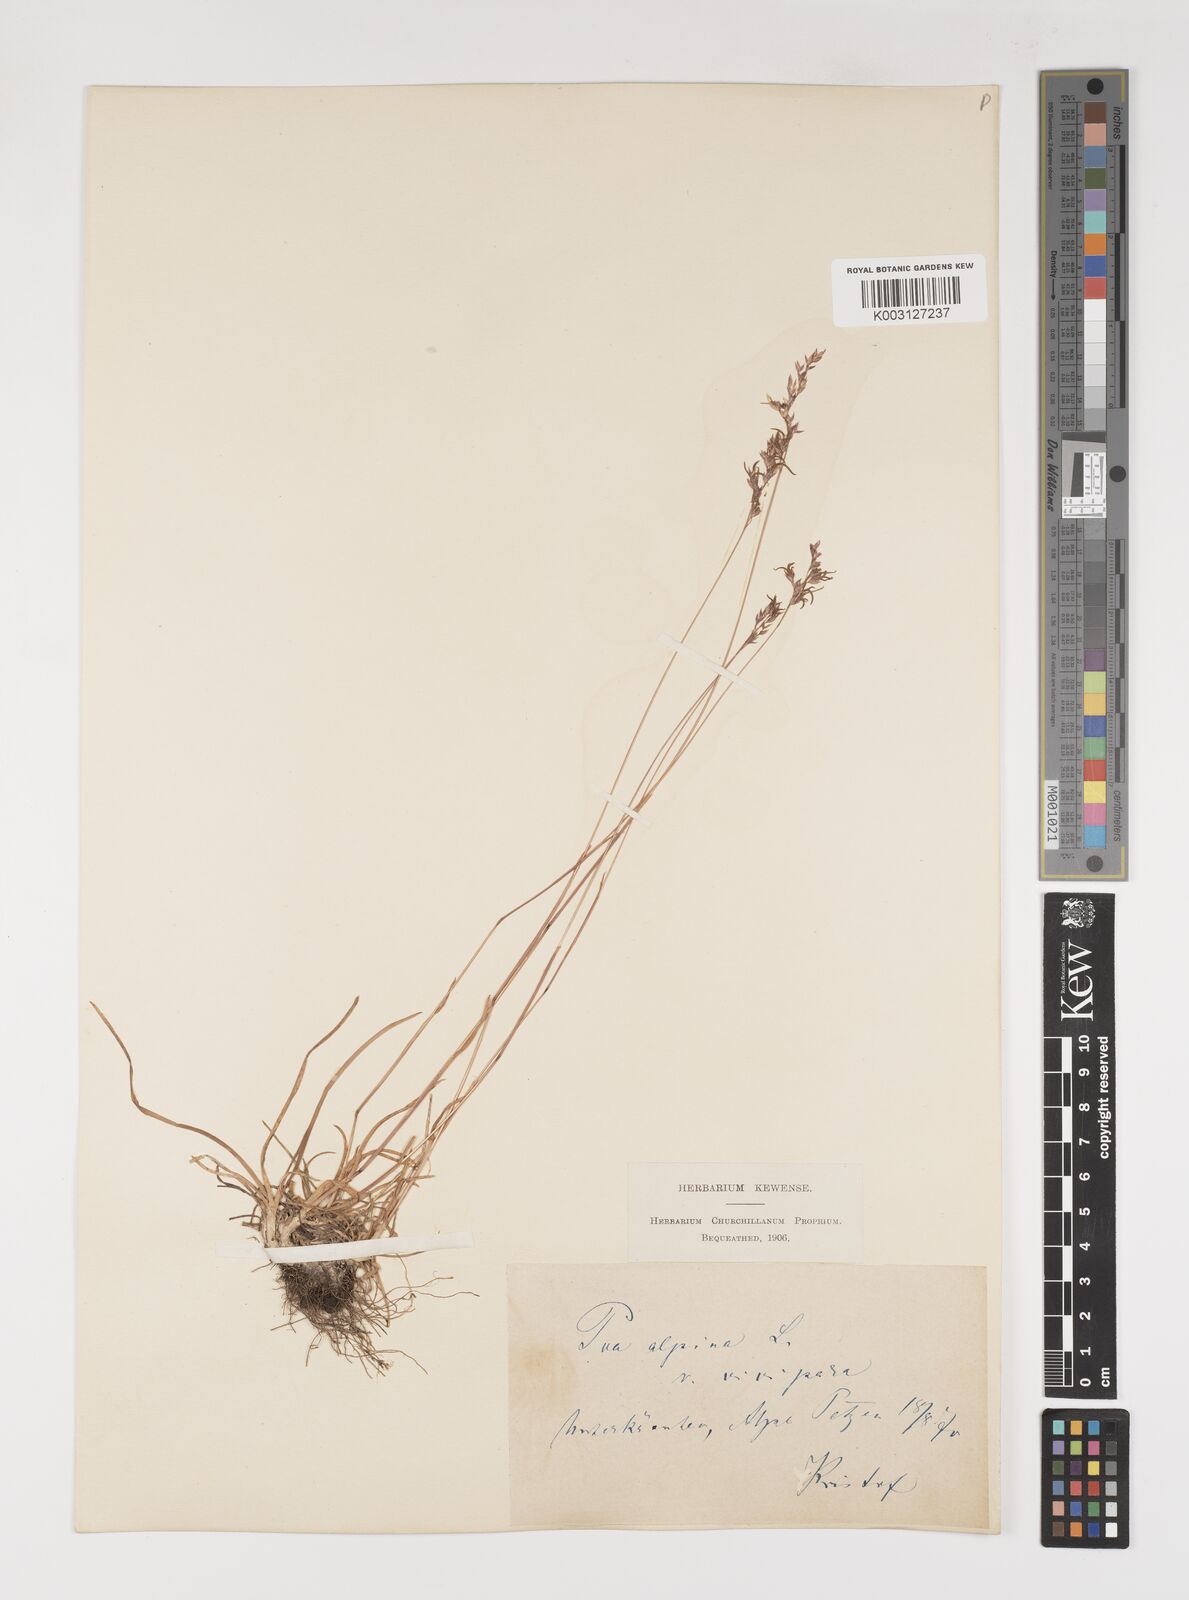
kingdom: Plantae
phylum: Tracheophyta
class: Liliopsida
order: Poales
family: Poaceae
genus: Poa
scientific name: Poa alpina
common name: Alpine bluegrass
